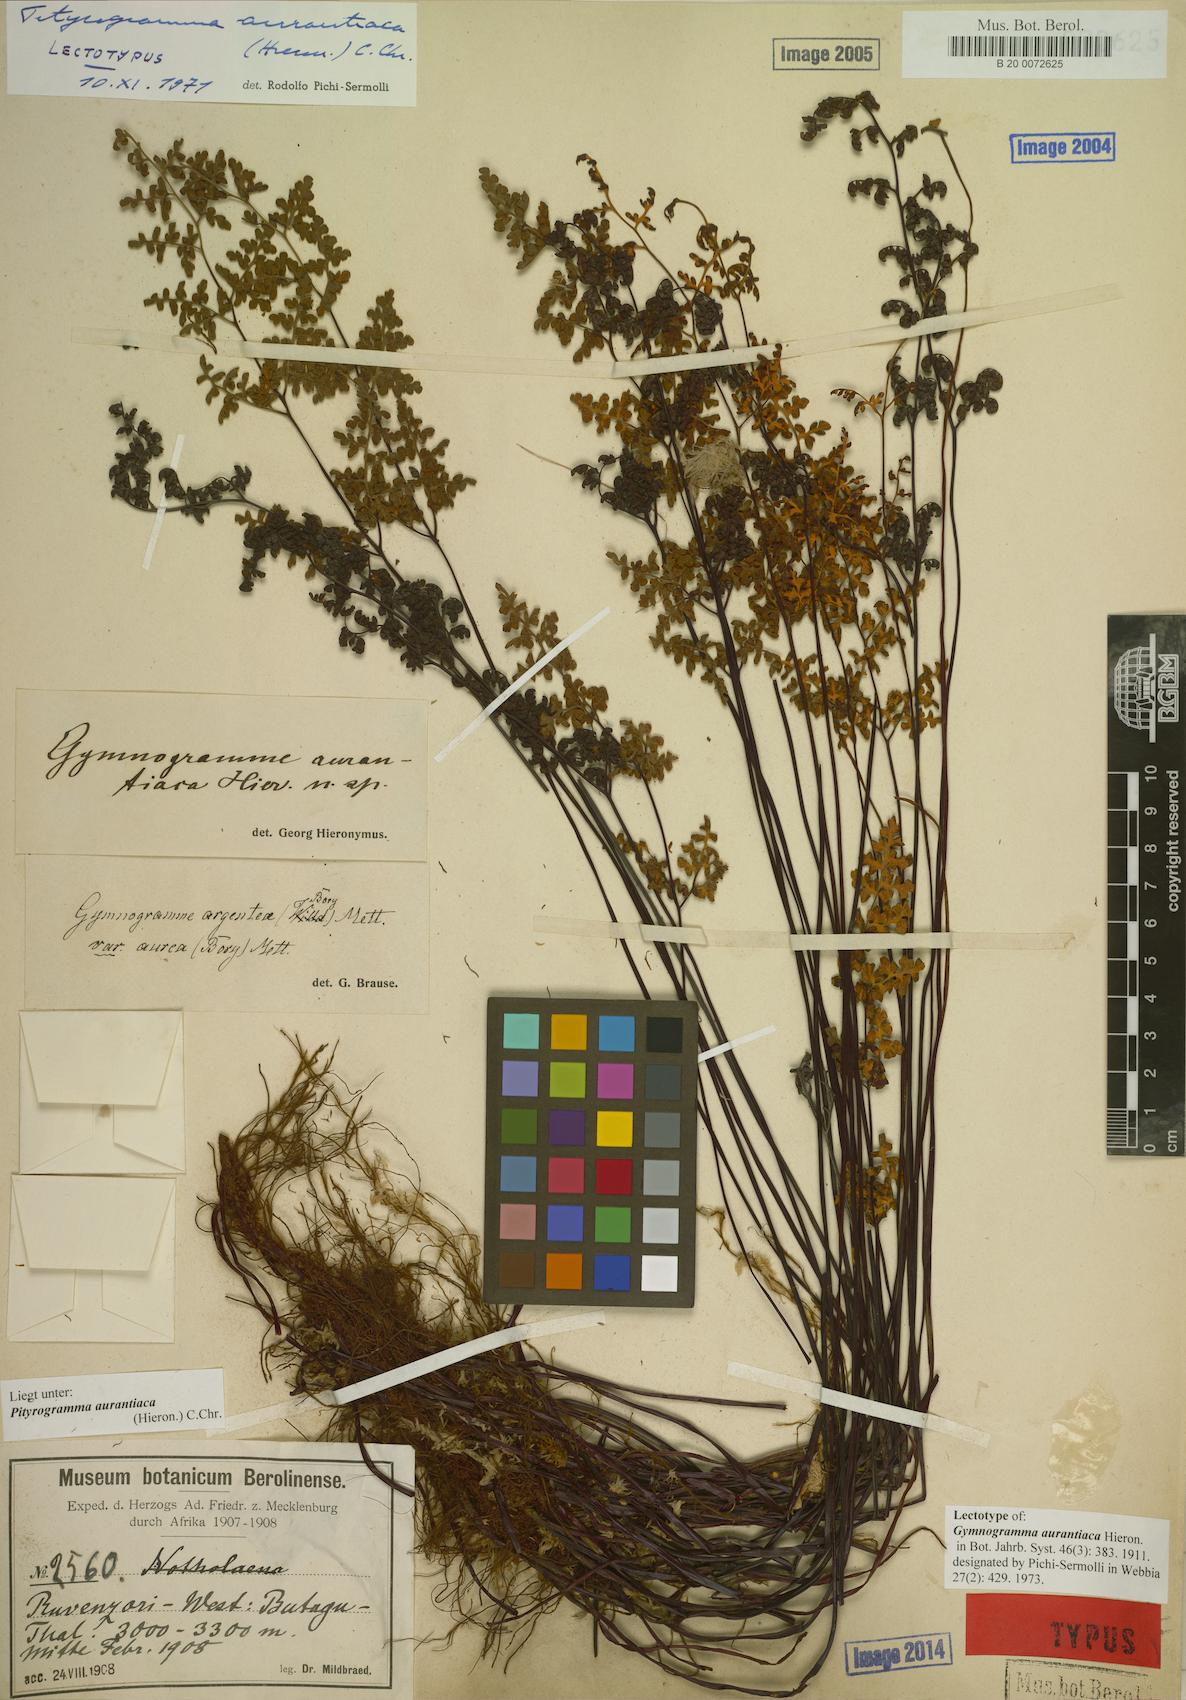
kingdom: Plantae
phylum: Tracheophyta
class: Polypodiopsida
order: Polypodiales
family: Pteridaceae
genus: Pityrogramma
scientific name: Pityrogramma aurantiaca
